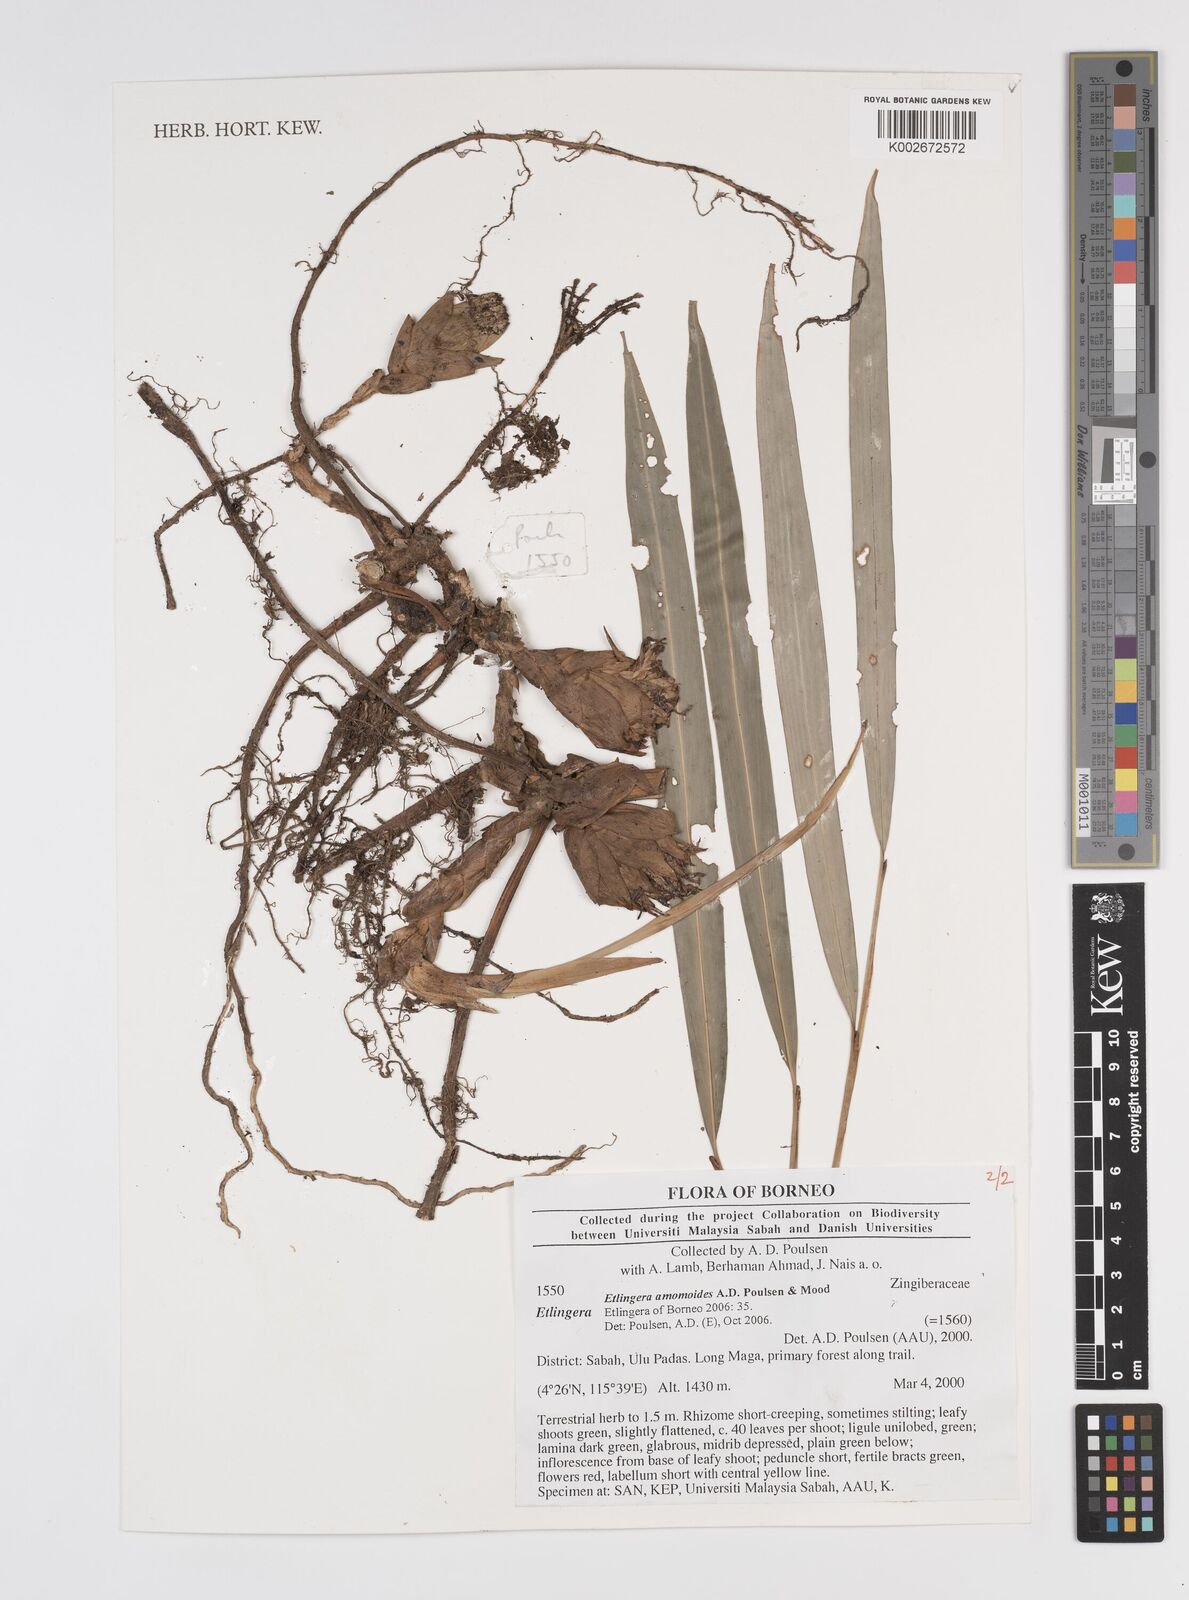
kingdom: Plantae
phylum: Tracheophyta
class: Liliopsida
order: Zingiberales
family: Zingiberaceae
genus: Etlingera
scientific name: Etlingera amomoides
